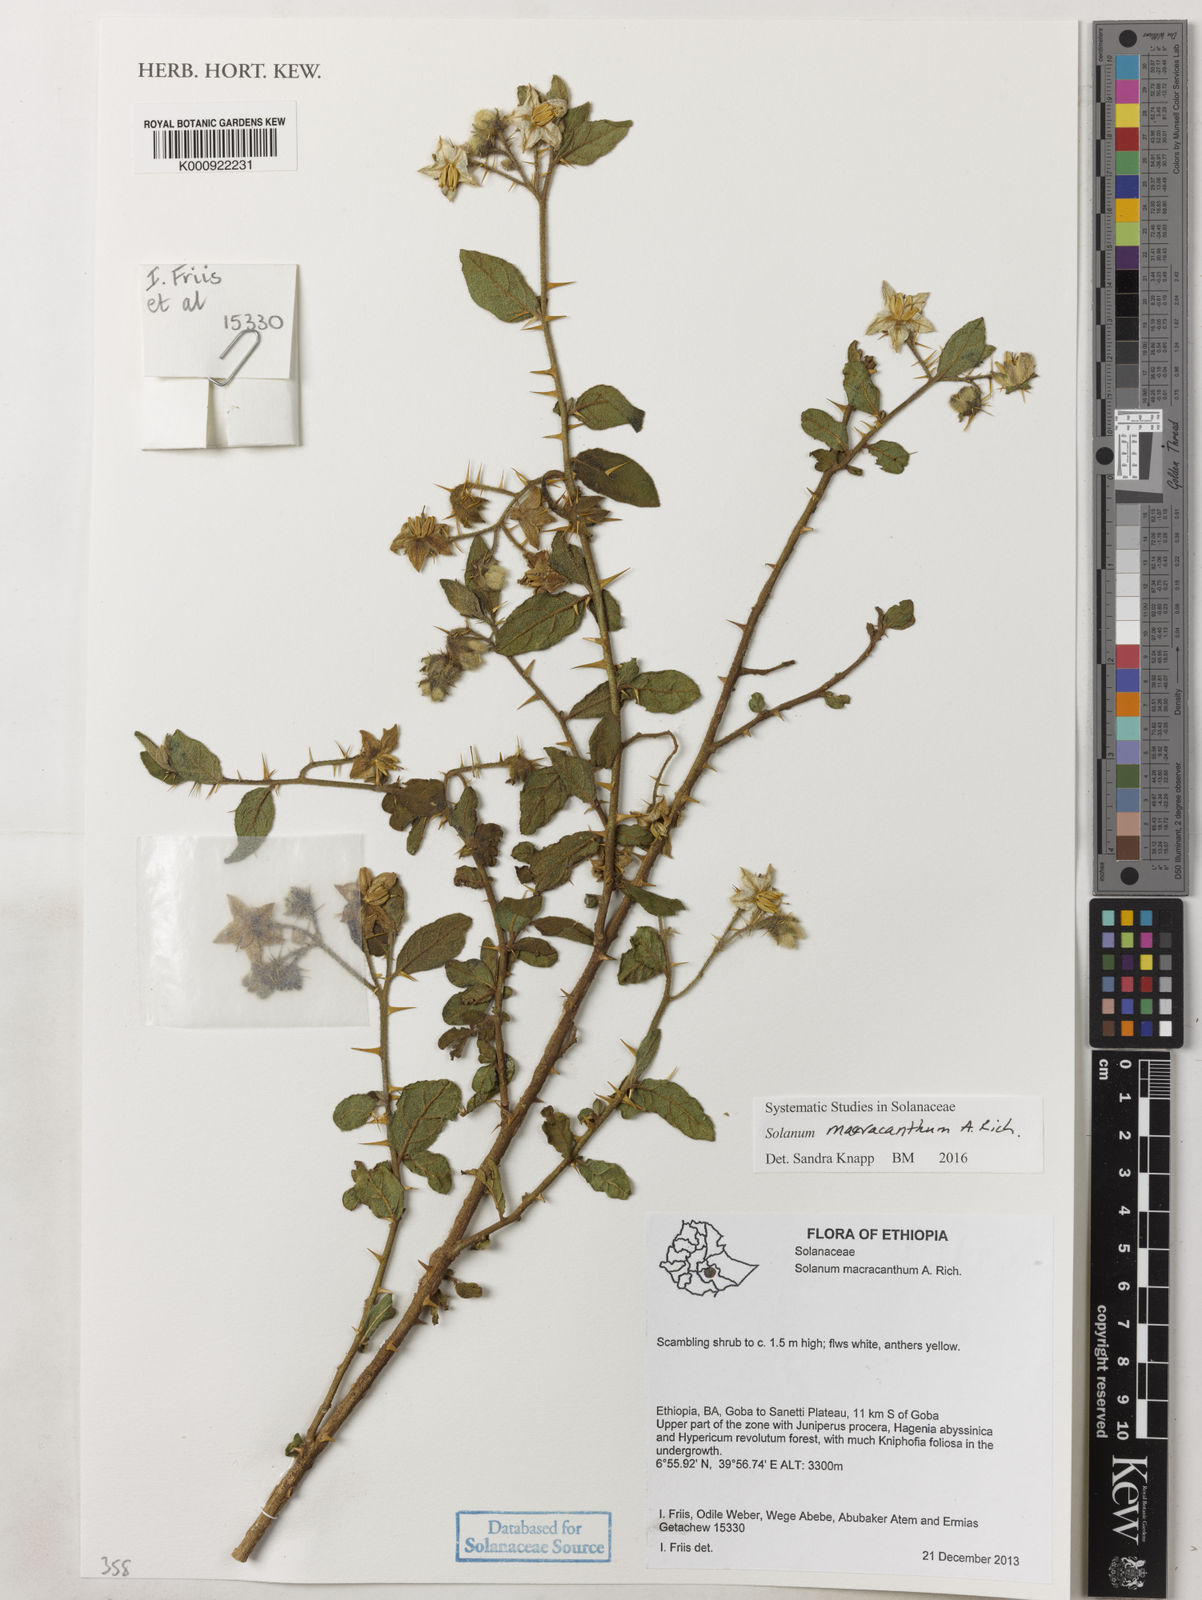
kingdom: Plantae
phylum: Tracheophyta
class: Magnoliopsida
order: Solanales
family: Solanaceae
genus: Solanum
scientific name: Solanum macracanthum
